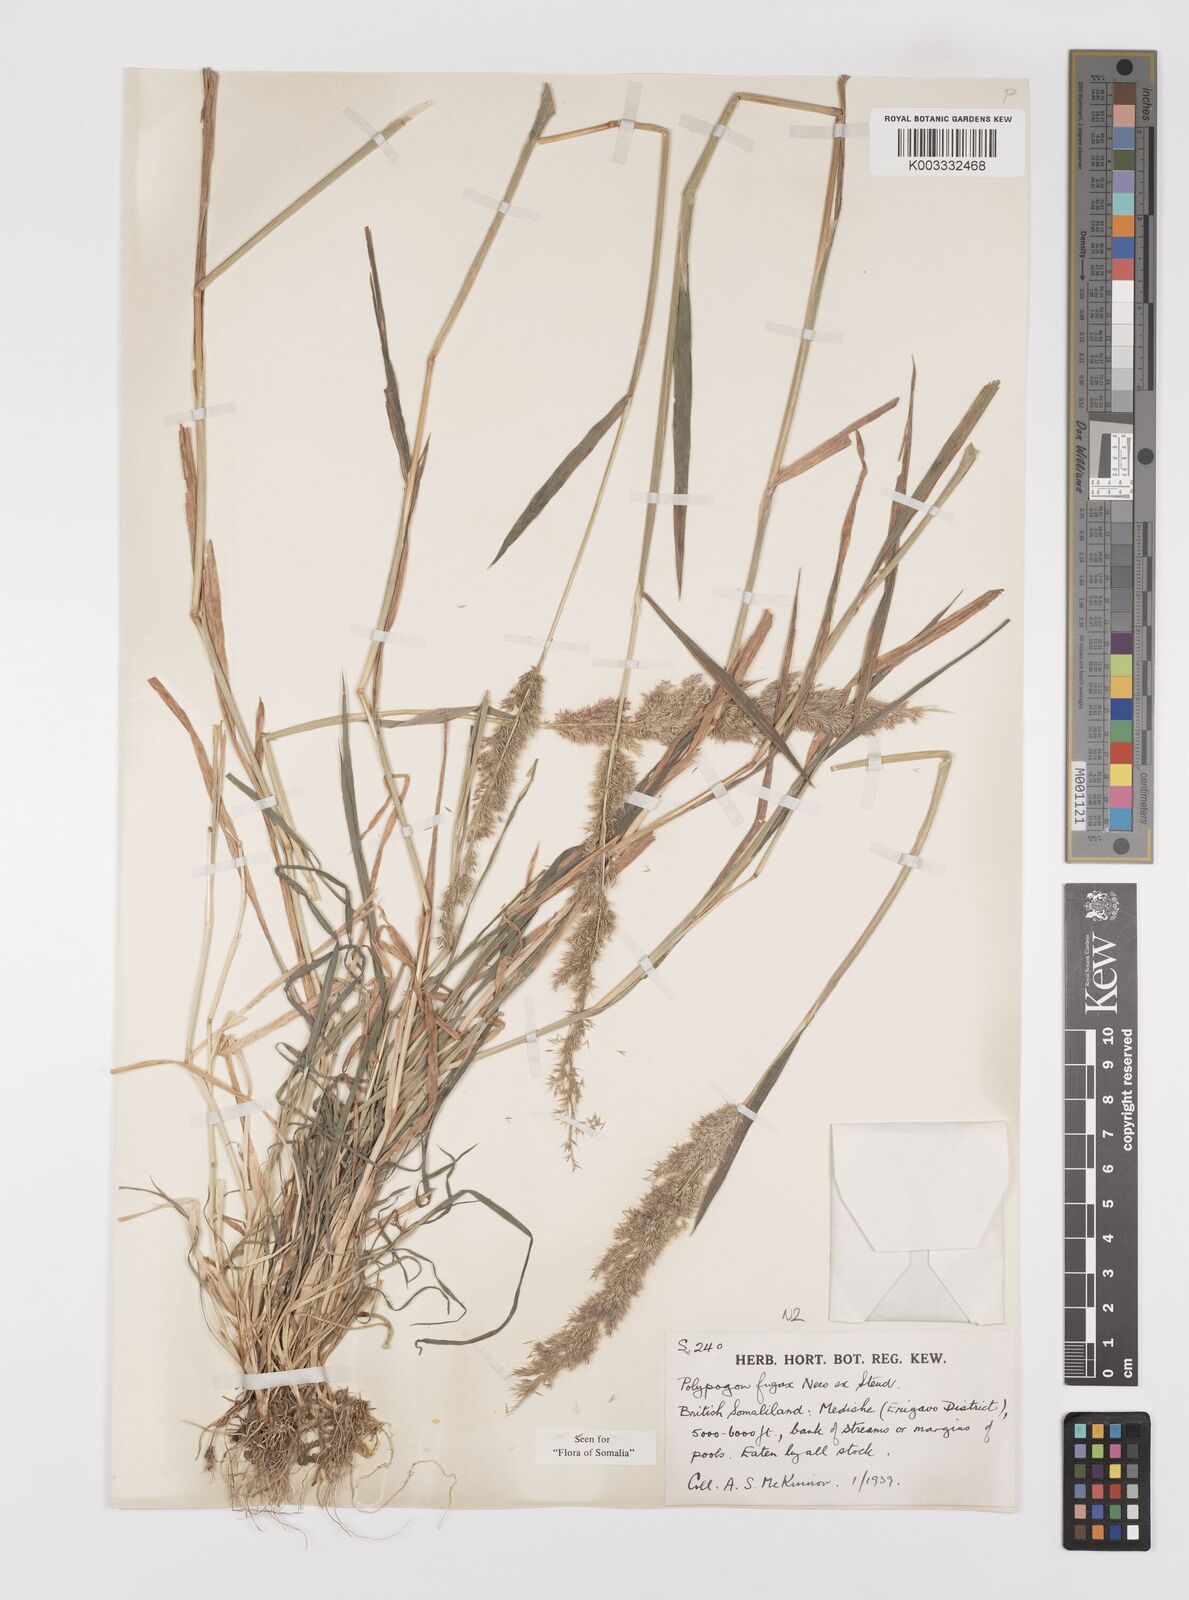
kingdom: Plantae
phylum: Tracheophyta
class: Liliopsida
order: Poales
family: Poaceae
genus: Polypogon
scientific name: Polypogon fugax
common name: Asia minor bluegrass
